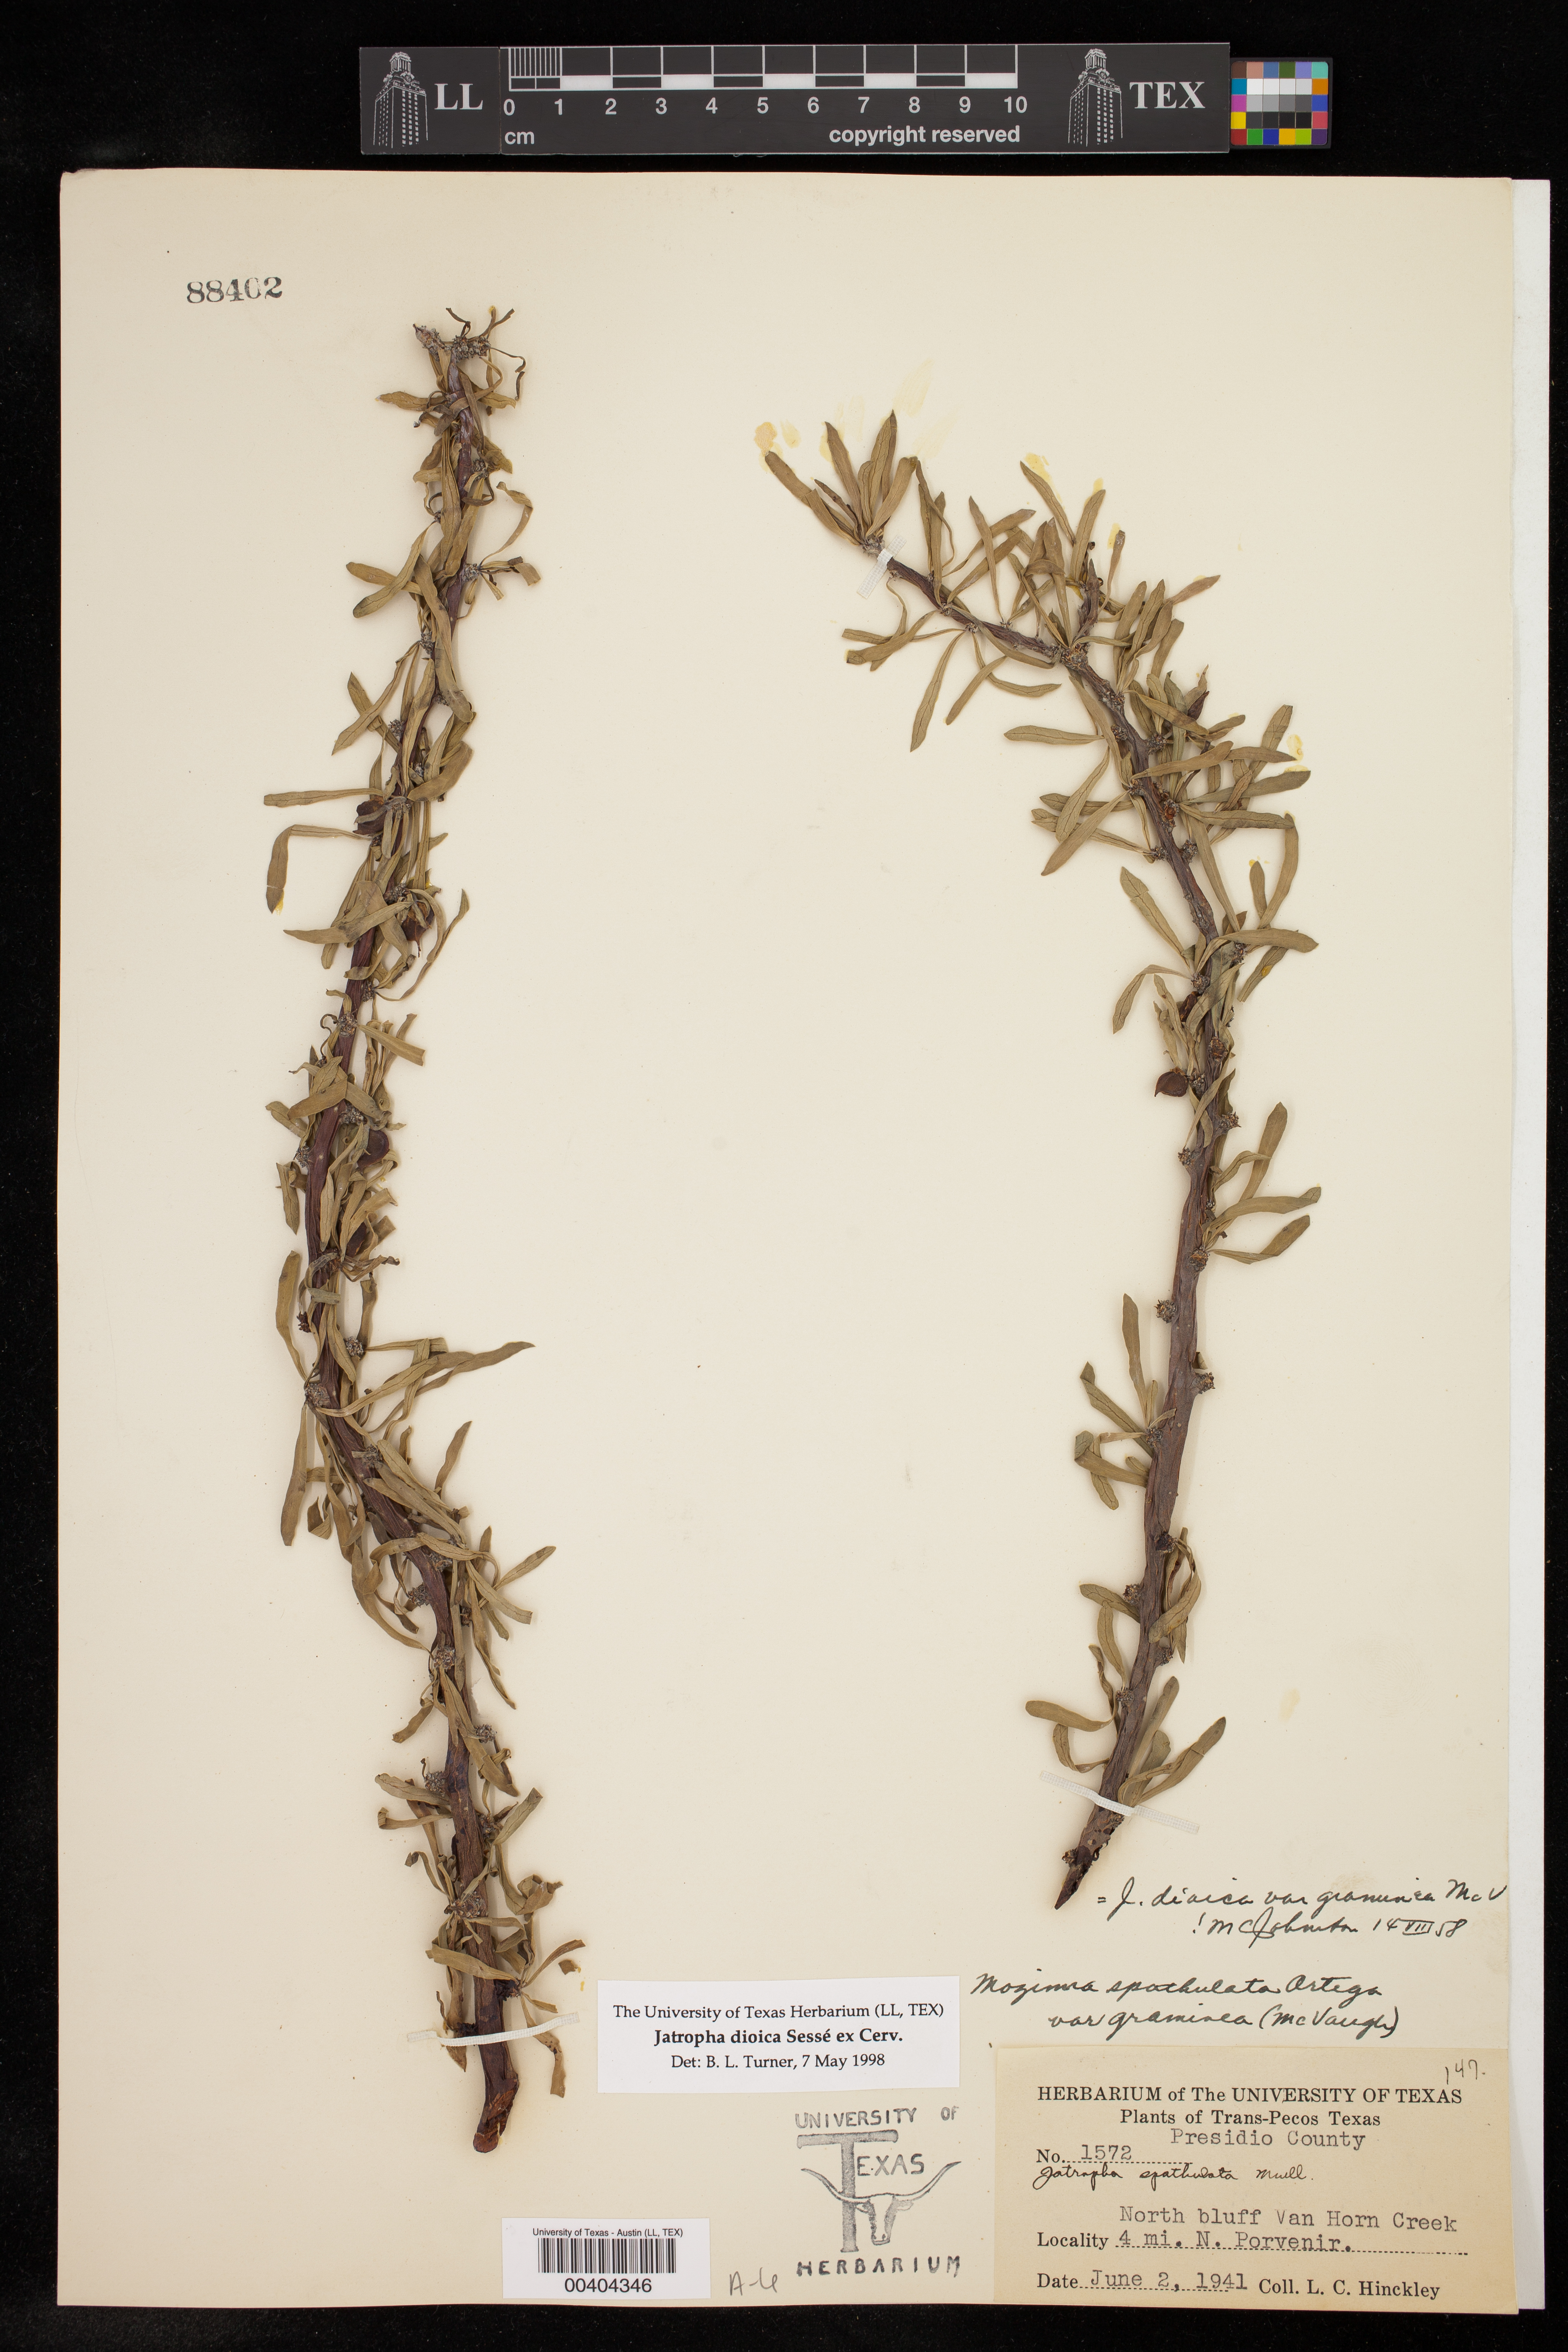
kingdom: Plantae
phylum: Tracheophyta
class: Magnoliopsida
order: Malpighiales
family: Euphorbiaceae
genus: Jatropha
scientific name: Jatropha dioica
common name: Leatherstem
